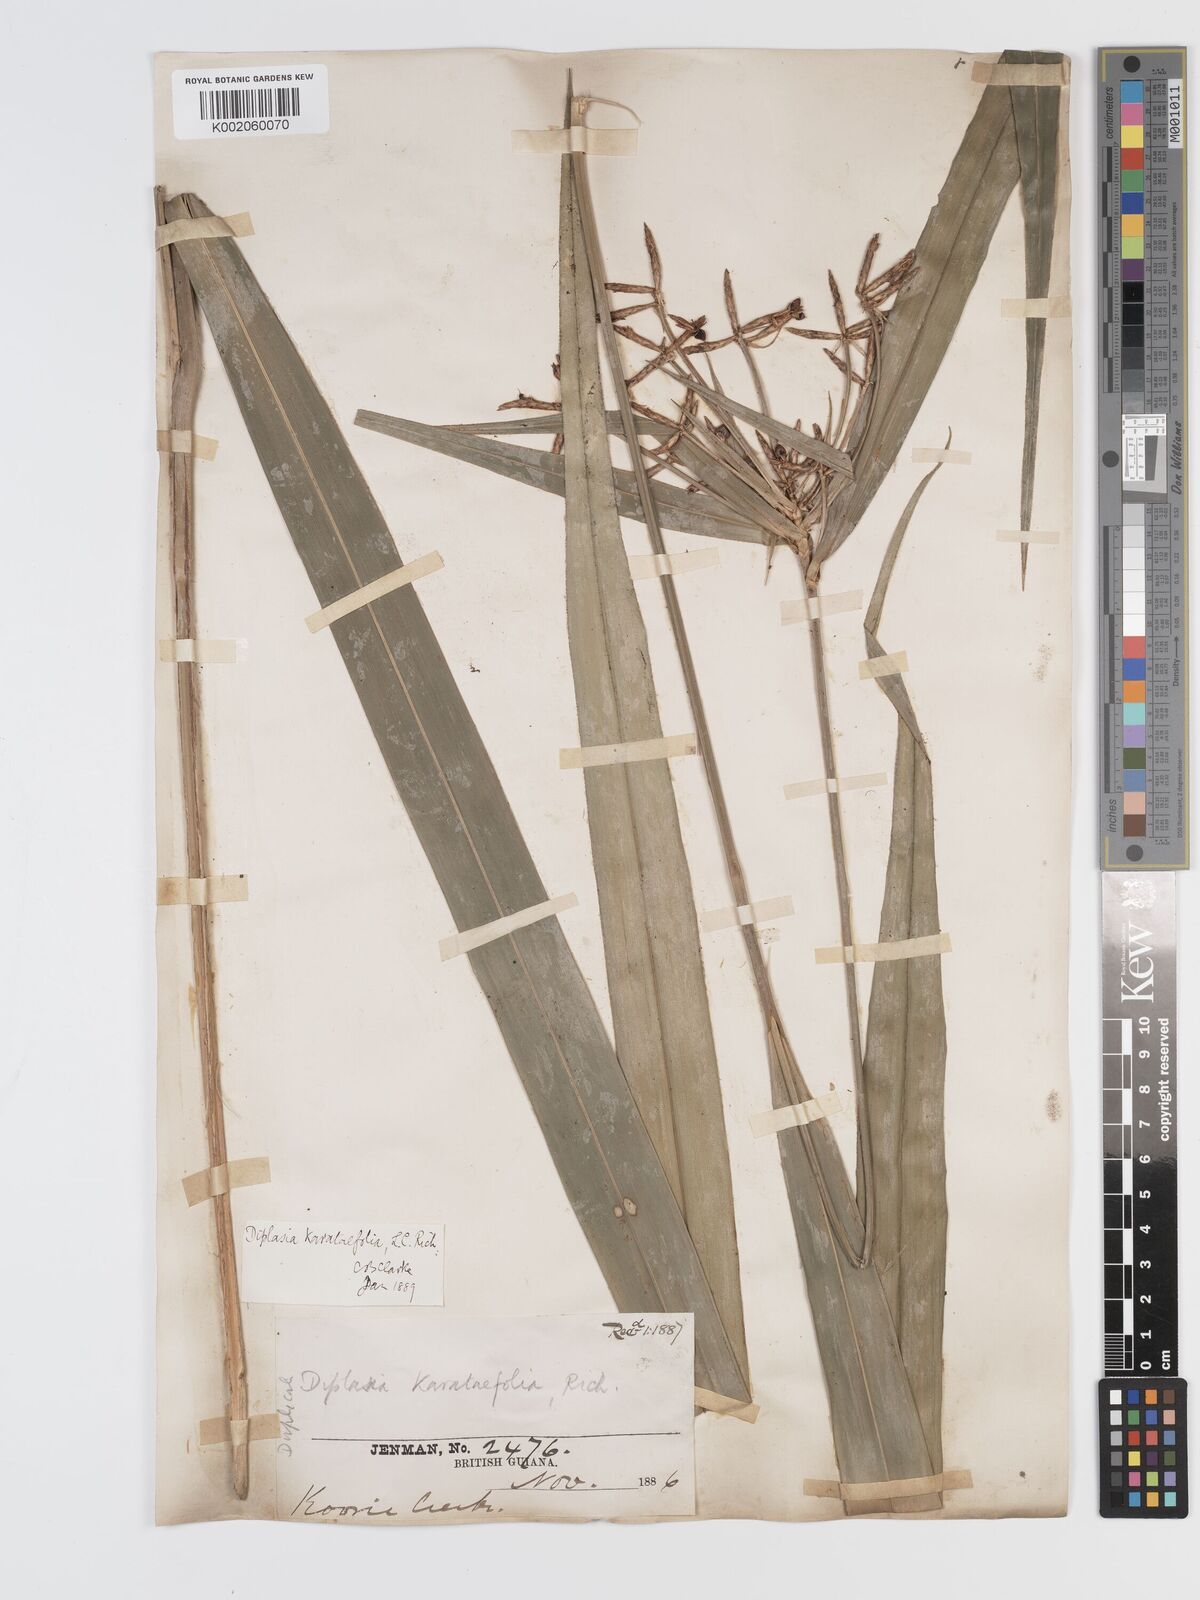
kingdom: Plantae
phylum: Tracheophyta
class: Liliopsida
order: Poales
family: Cyperaceae
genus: Diplasia
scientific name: Diplasia karatifolia
